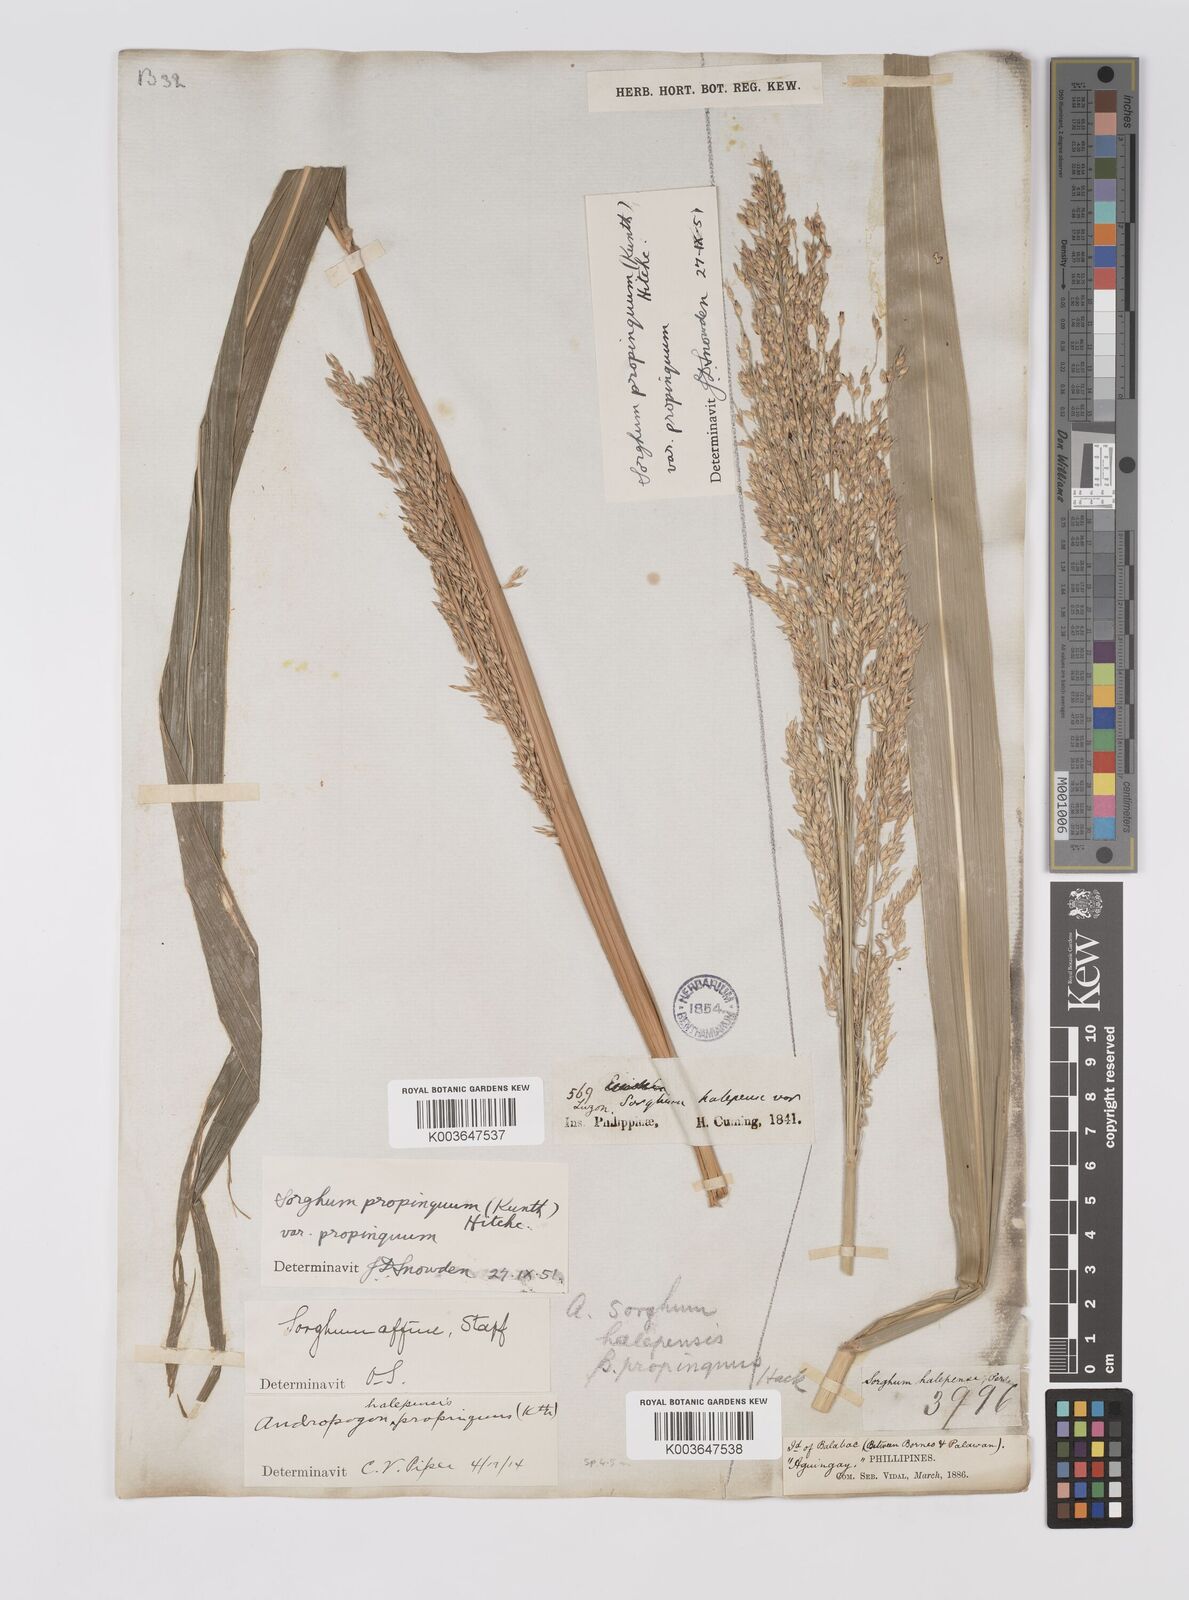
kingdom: Plantae
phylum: Tracheophyta
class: Liliopsida
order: Poales
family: Poaceae
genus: Sorghum
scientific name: Sorghum propinquum
